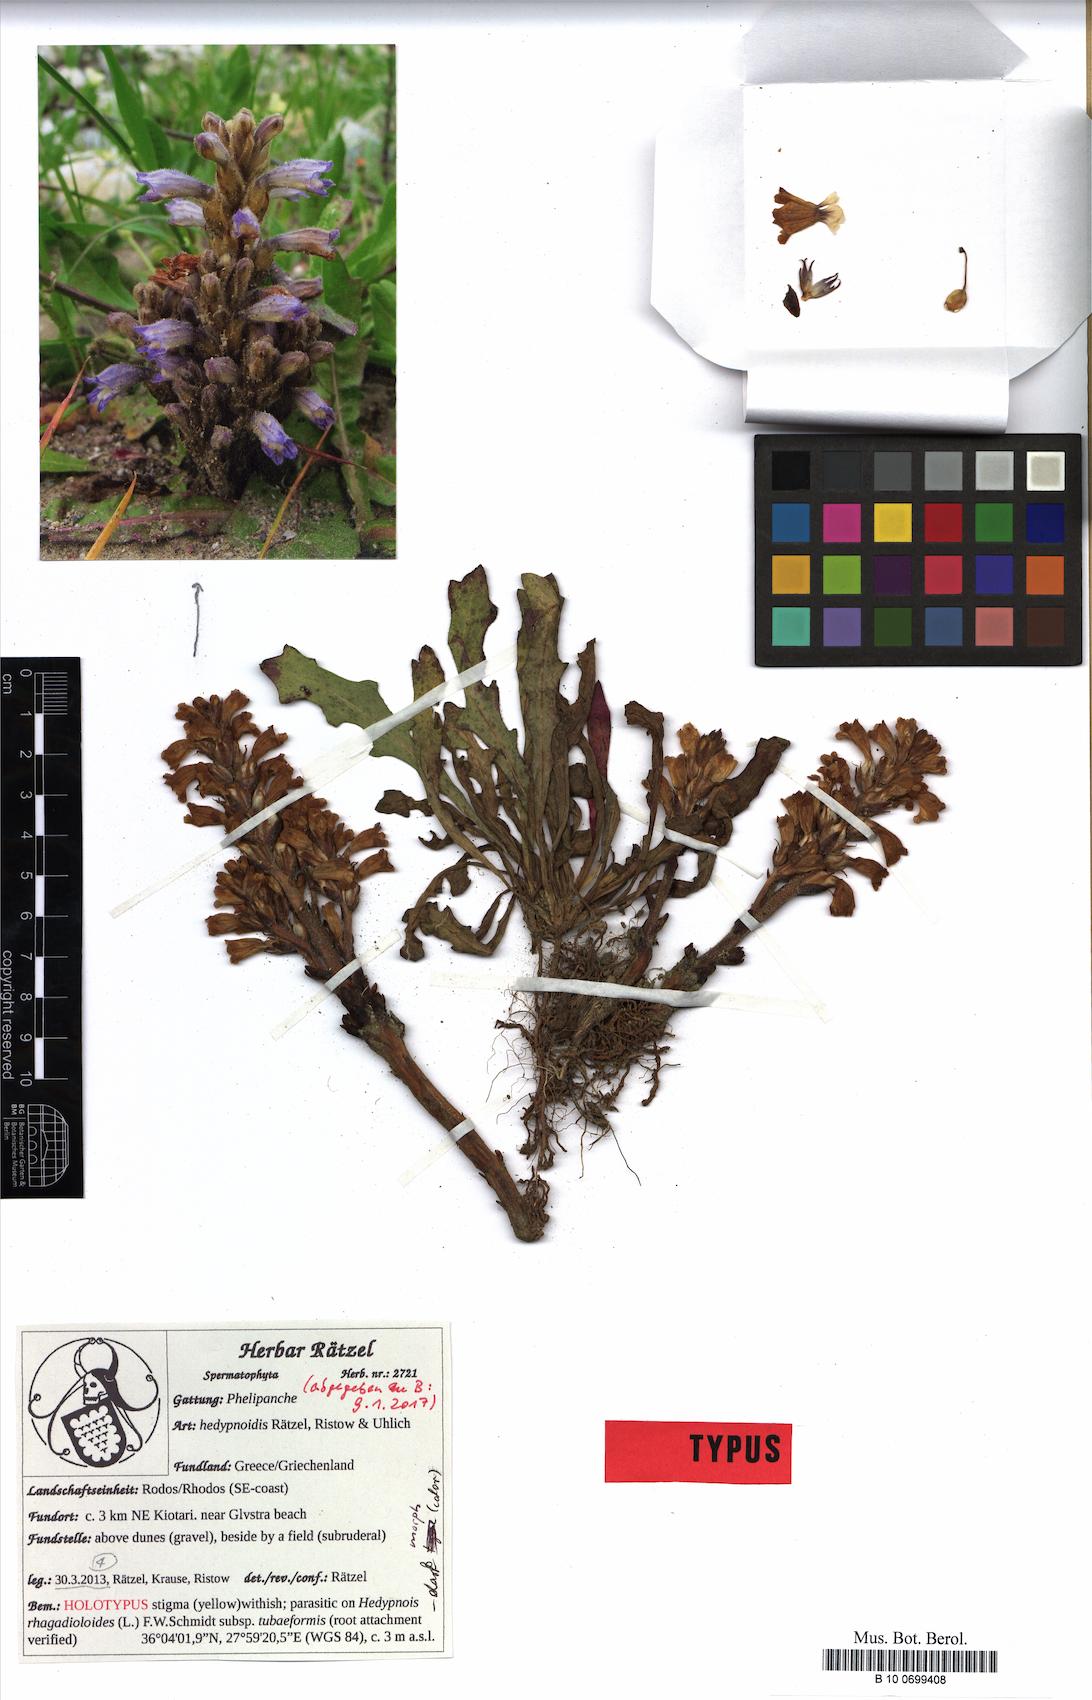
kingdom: Plantae
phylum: Tracheophyta
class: Magnoliopsida
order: Lamiales
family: Orobanchaceae
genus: Phelipanche
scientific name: Phelipanche hedypnoidis
